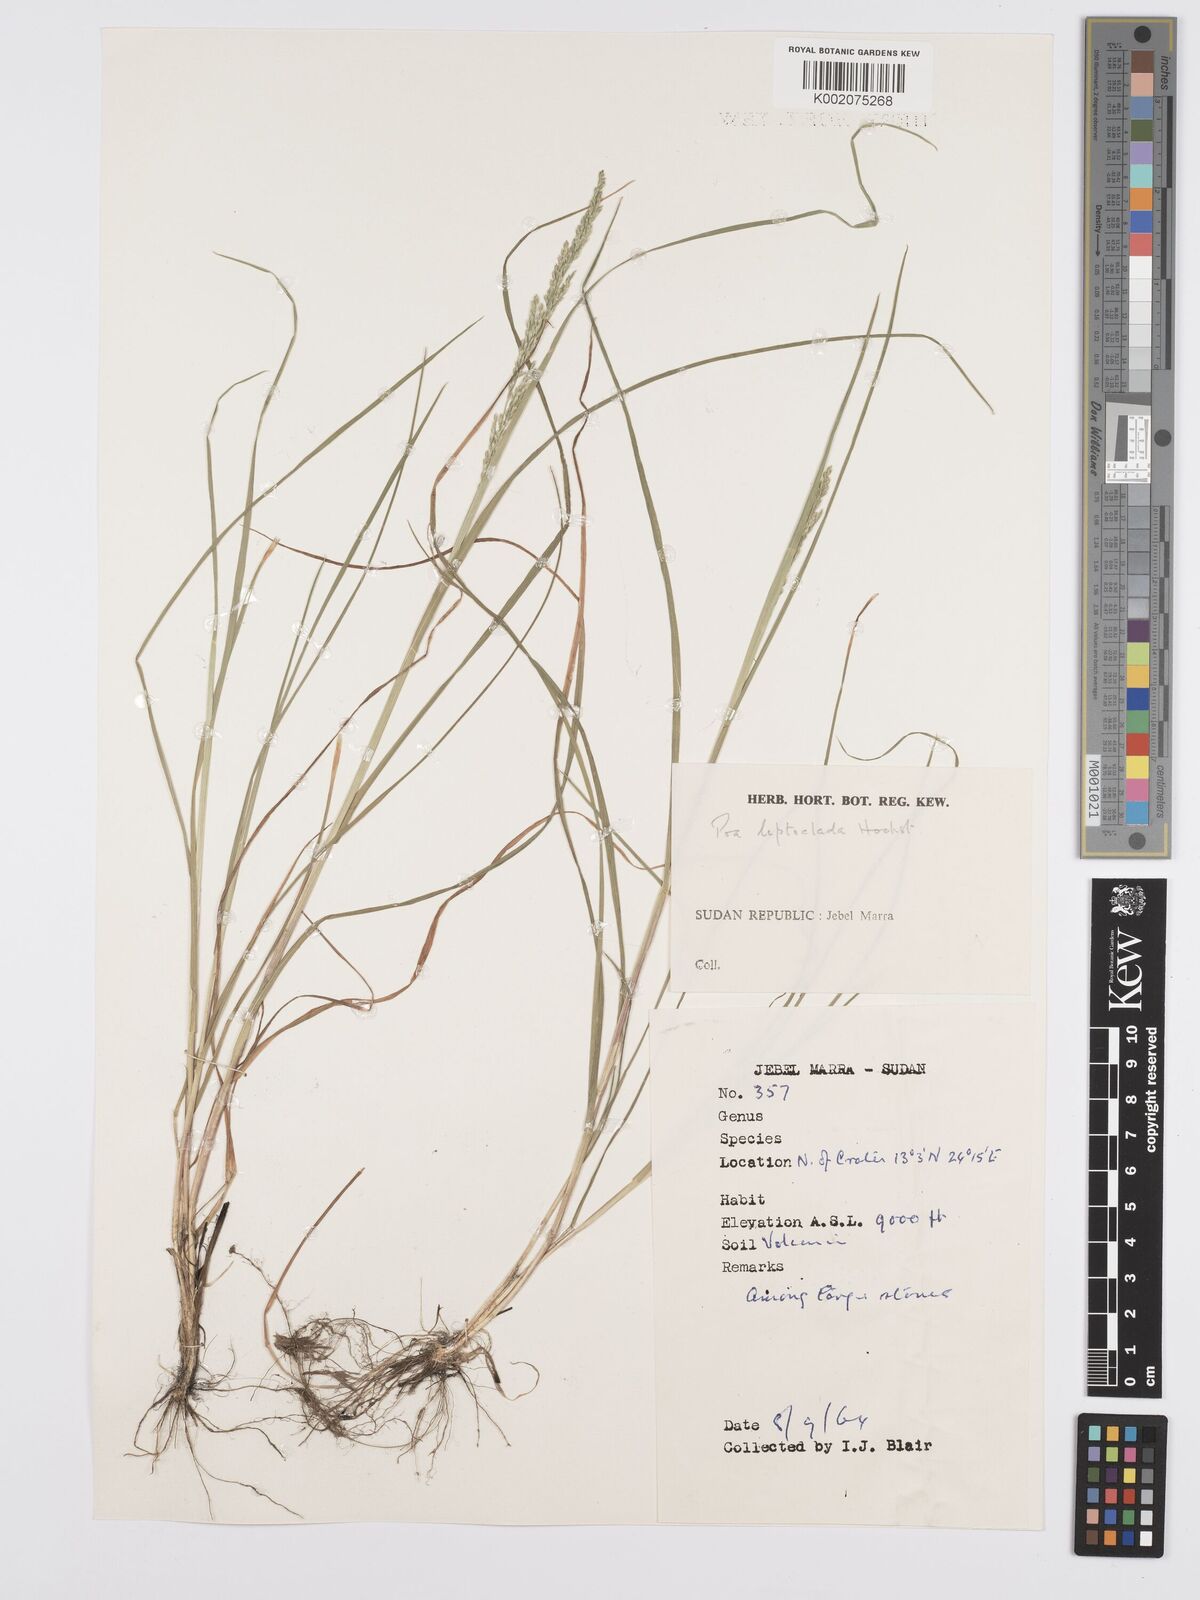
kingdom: Plantae
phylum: Tracheophyta
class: Liliopsida
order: Poales
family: Poaceae
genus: Poa
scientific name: Poa leptoclada
